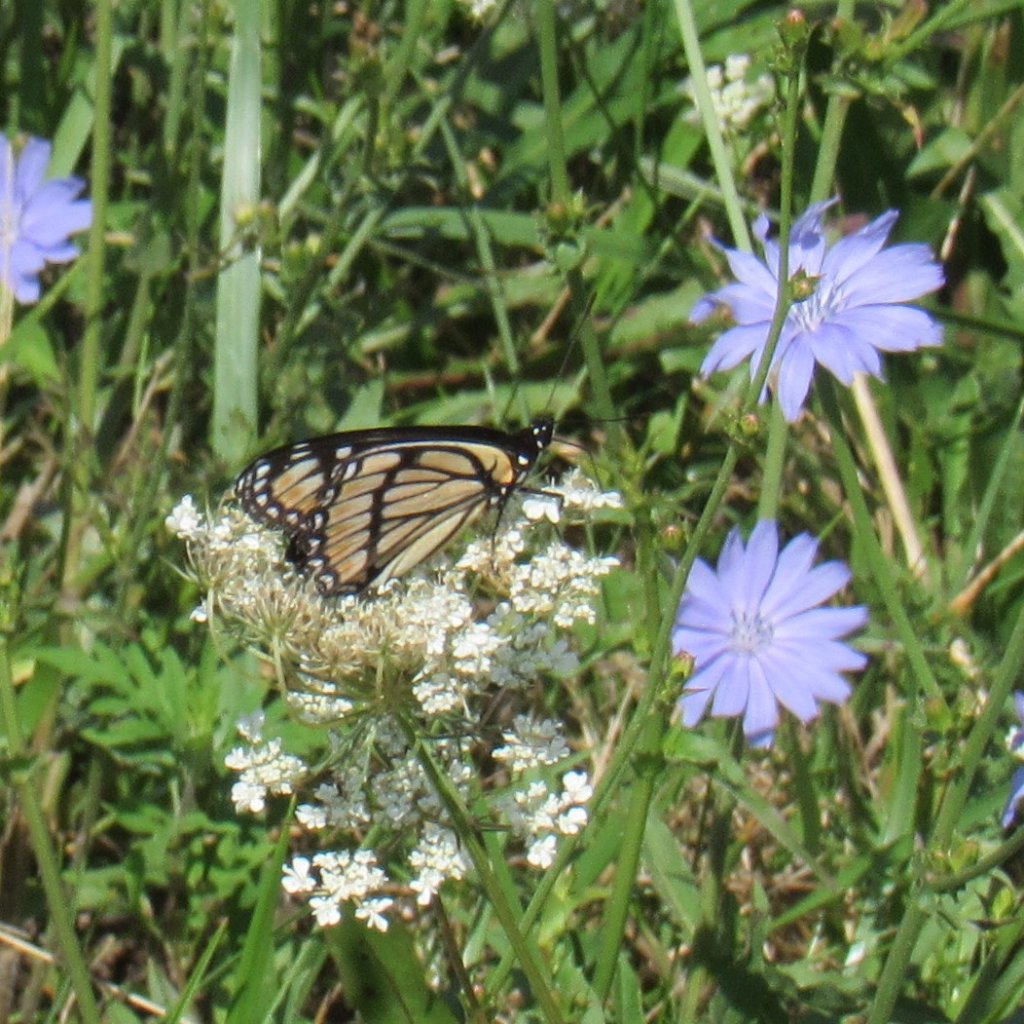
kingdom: Animalia
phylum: Arthropoda
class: Insecta
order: Lepidoptera
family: Nymphalidae
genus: Limenitis
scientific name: Limenitis archippus
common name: Viceroy
